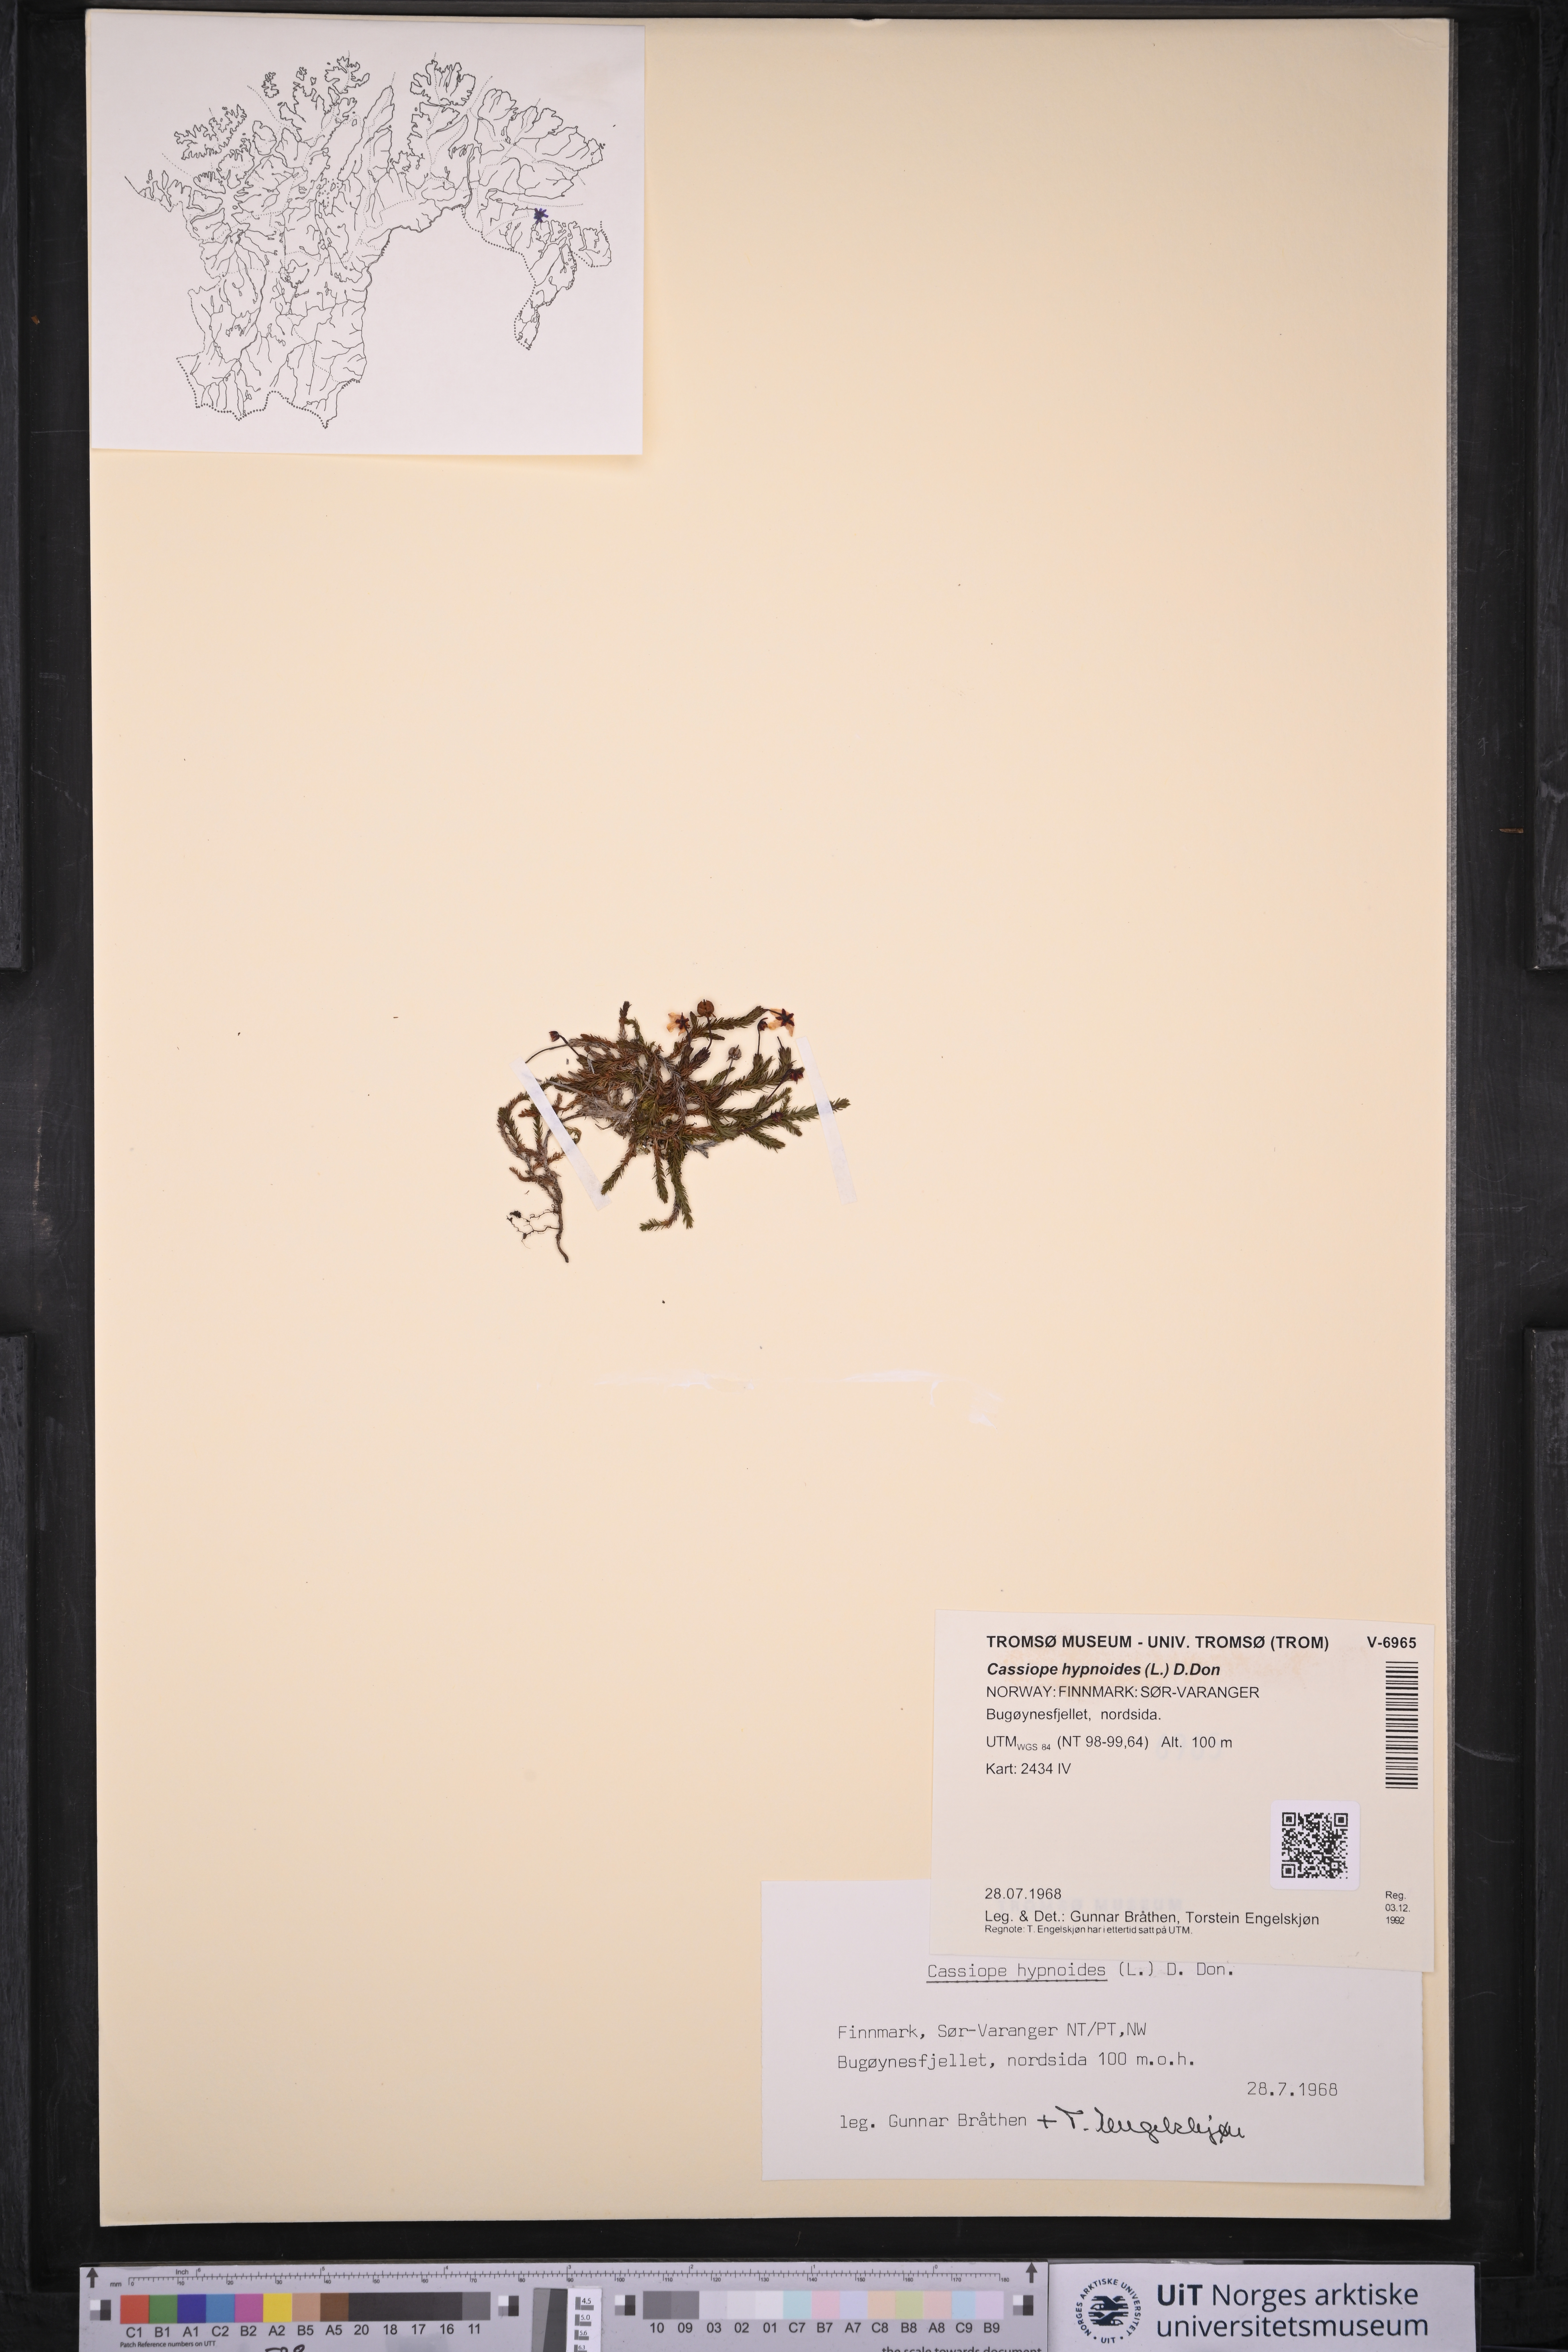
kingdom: Plantae
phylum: Tracheophyta
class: Magnoliopsida
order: Ericales
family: Ericaceae
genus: Harrimanella
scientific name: Harrimanella hypnoides
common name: Moss bell heather
